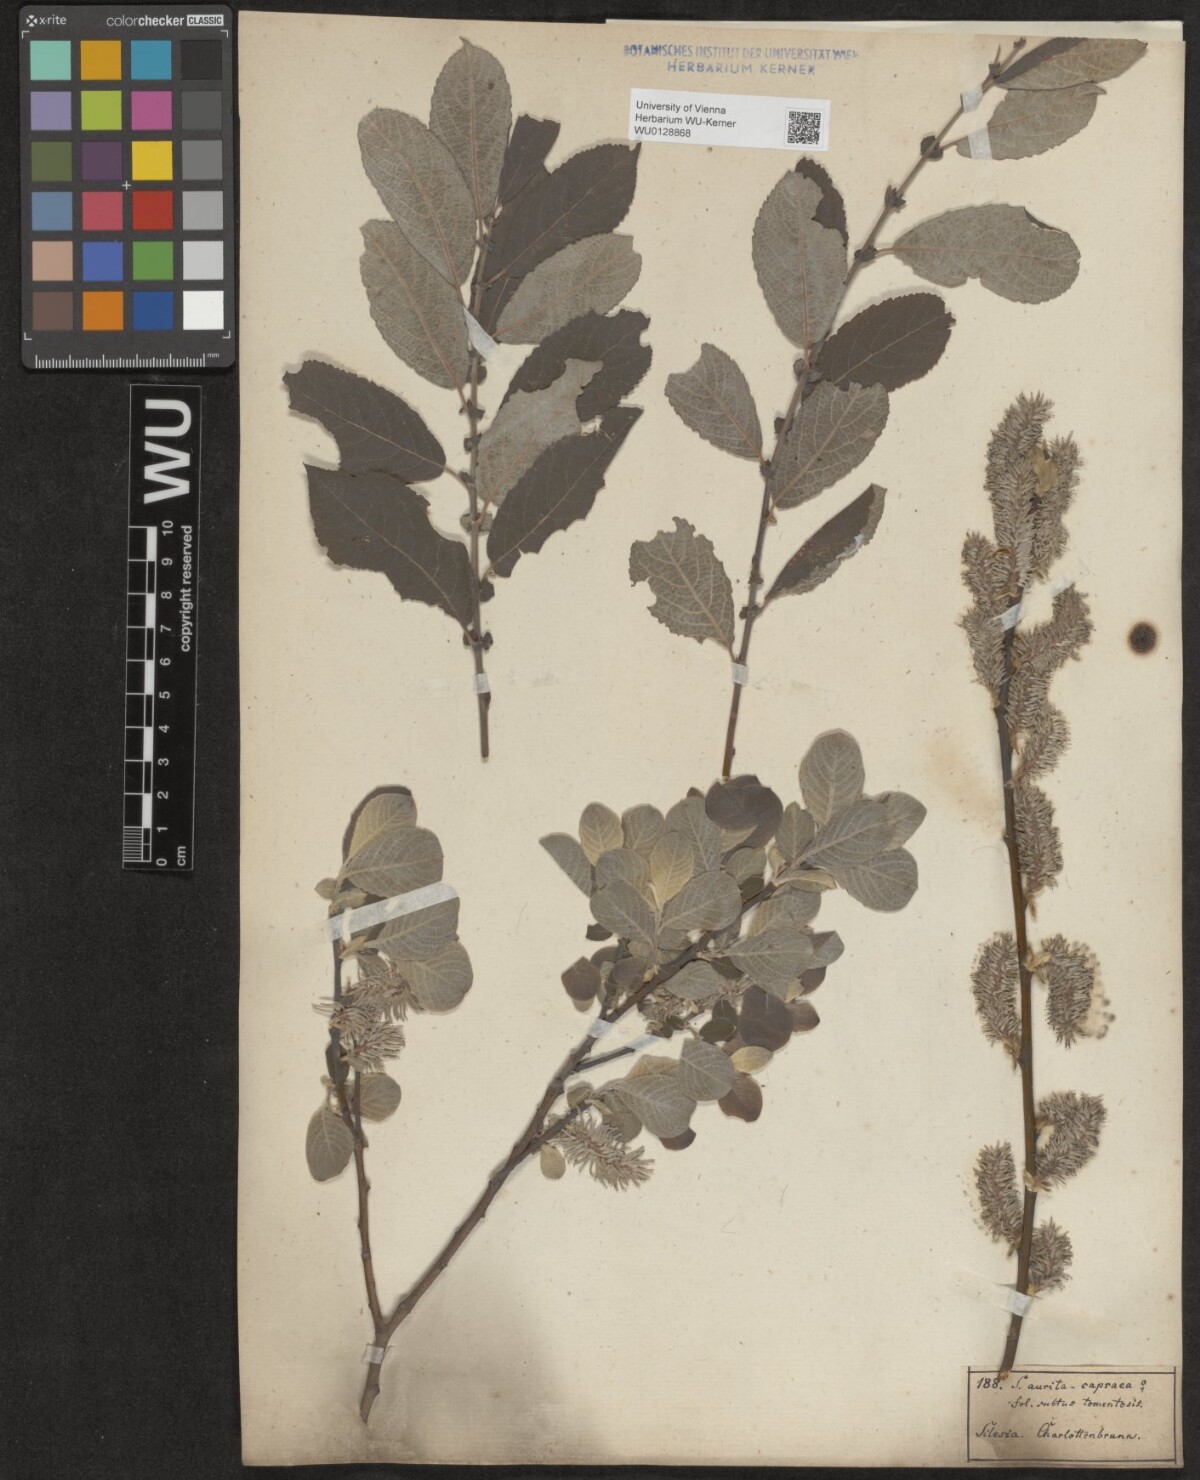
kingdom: Plantae
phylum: Tracheophyta
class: Magnoliopsida
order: Malpighiales
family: Salicaceae
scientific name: Salicaceae
